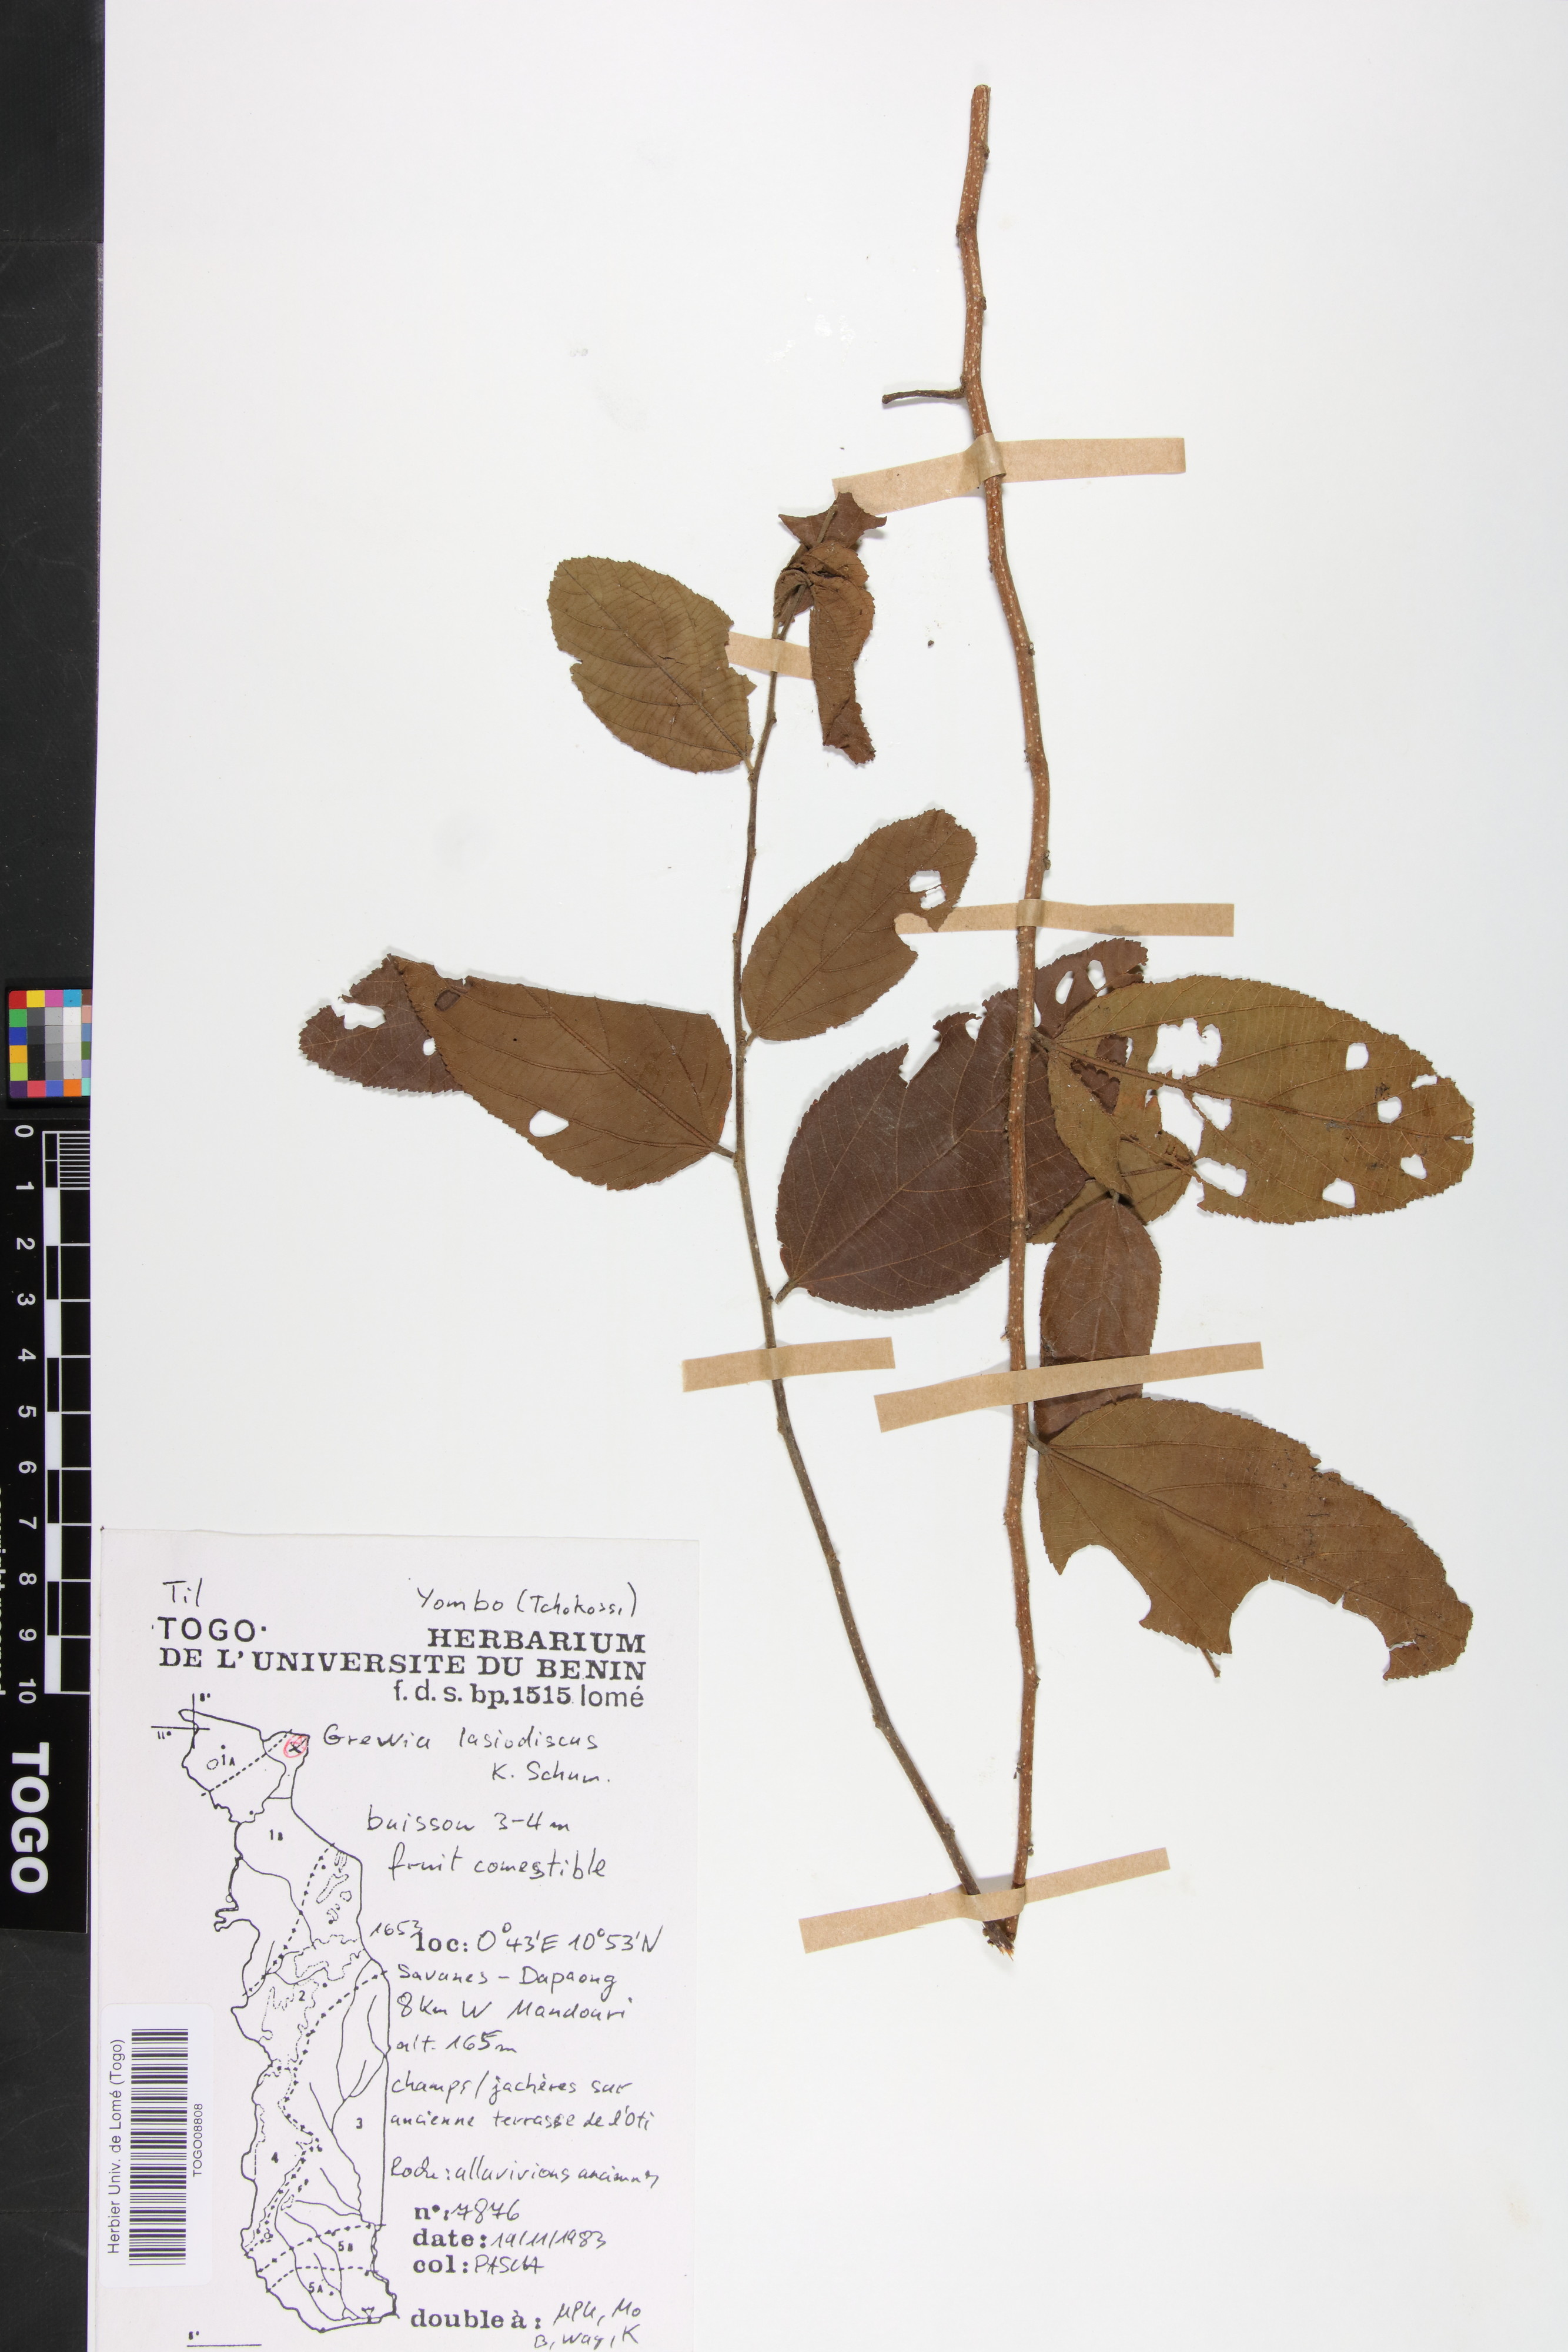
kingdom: Plantae
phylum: Tracheophyta
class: Magnoliopsida
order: Malvales
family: Malvaceae
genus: Grewia
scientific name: Grewia lasiodiscus
